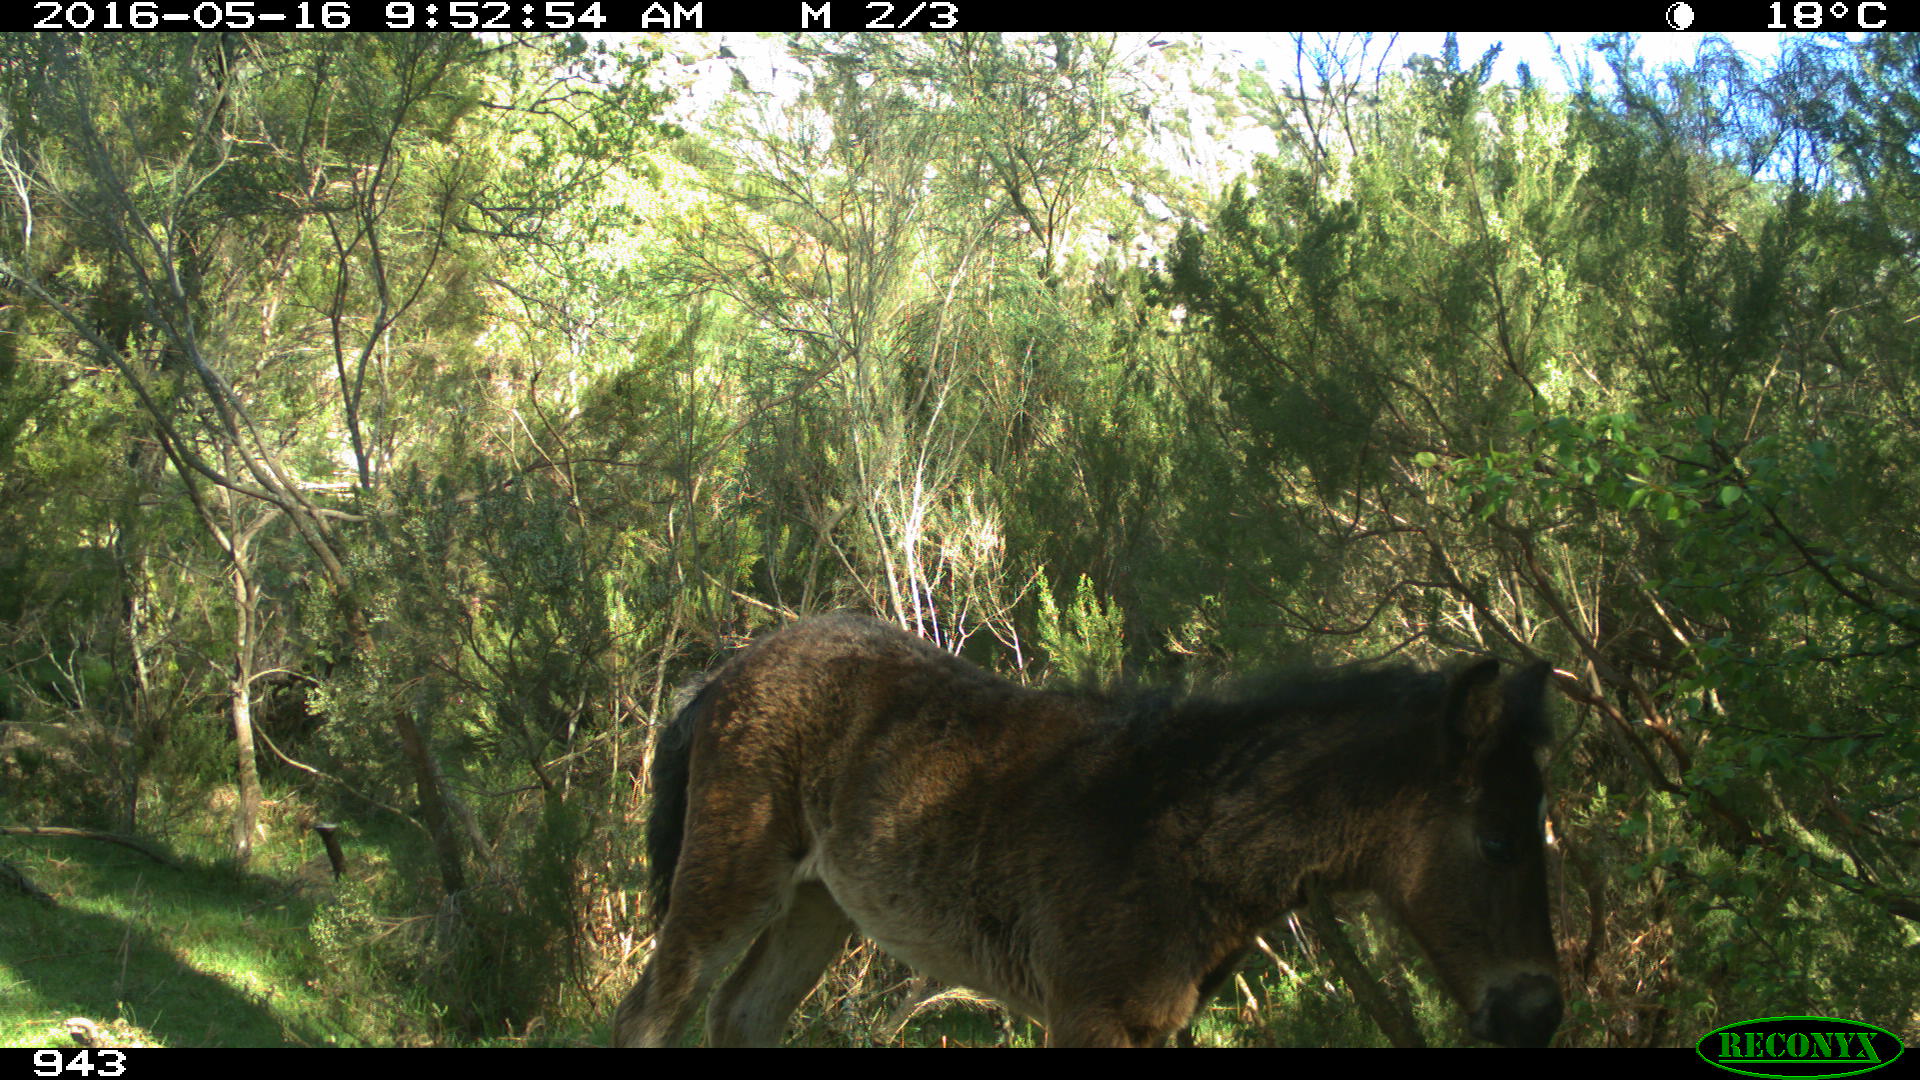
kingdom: Animalia
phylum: Chordata
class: Mammalia
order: Perissodactyla
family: Equidae
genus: Equus
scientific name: Equus caballus
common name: Horse
